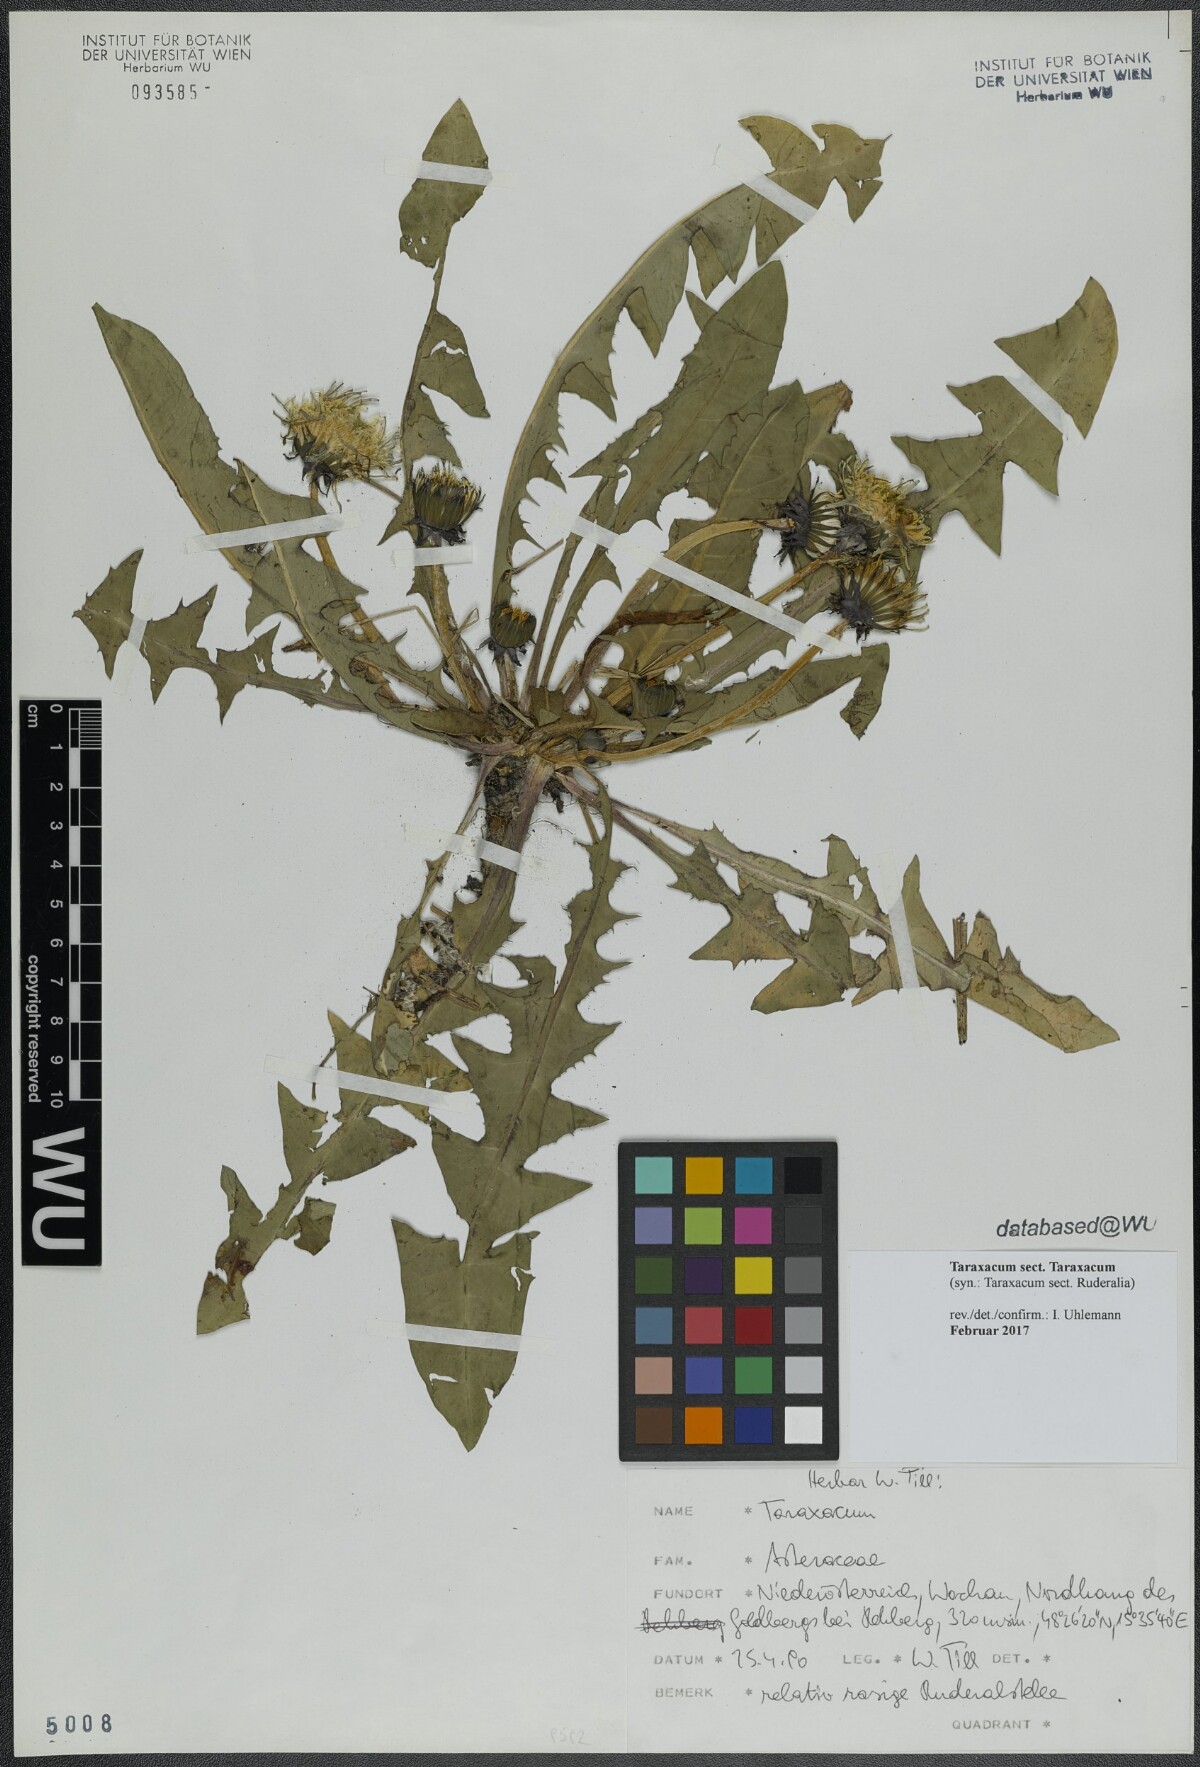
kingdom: Plantae
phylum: Tracheophyta
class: Magnoliopsida
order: Asterales
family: Asteraceae
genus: Taraxacum
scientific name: Taraxacum
